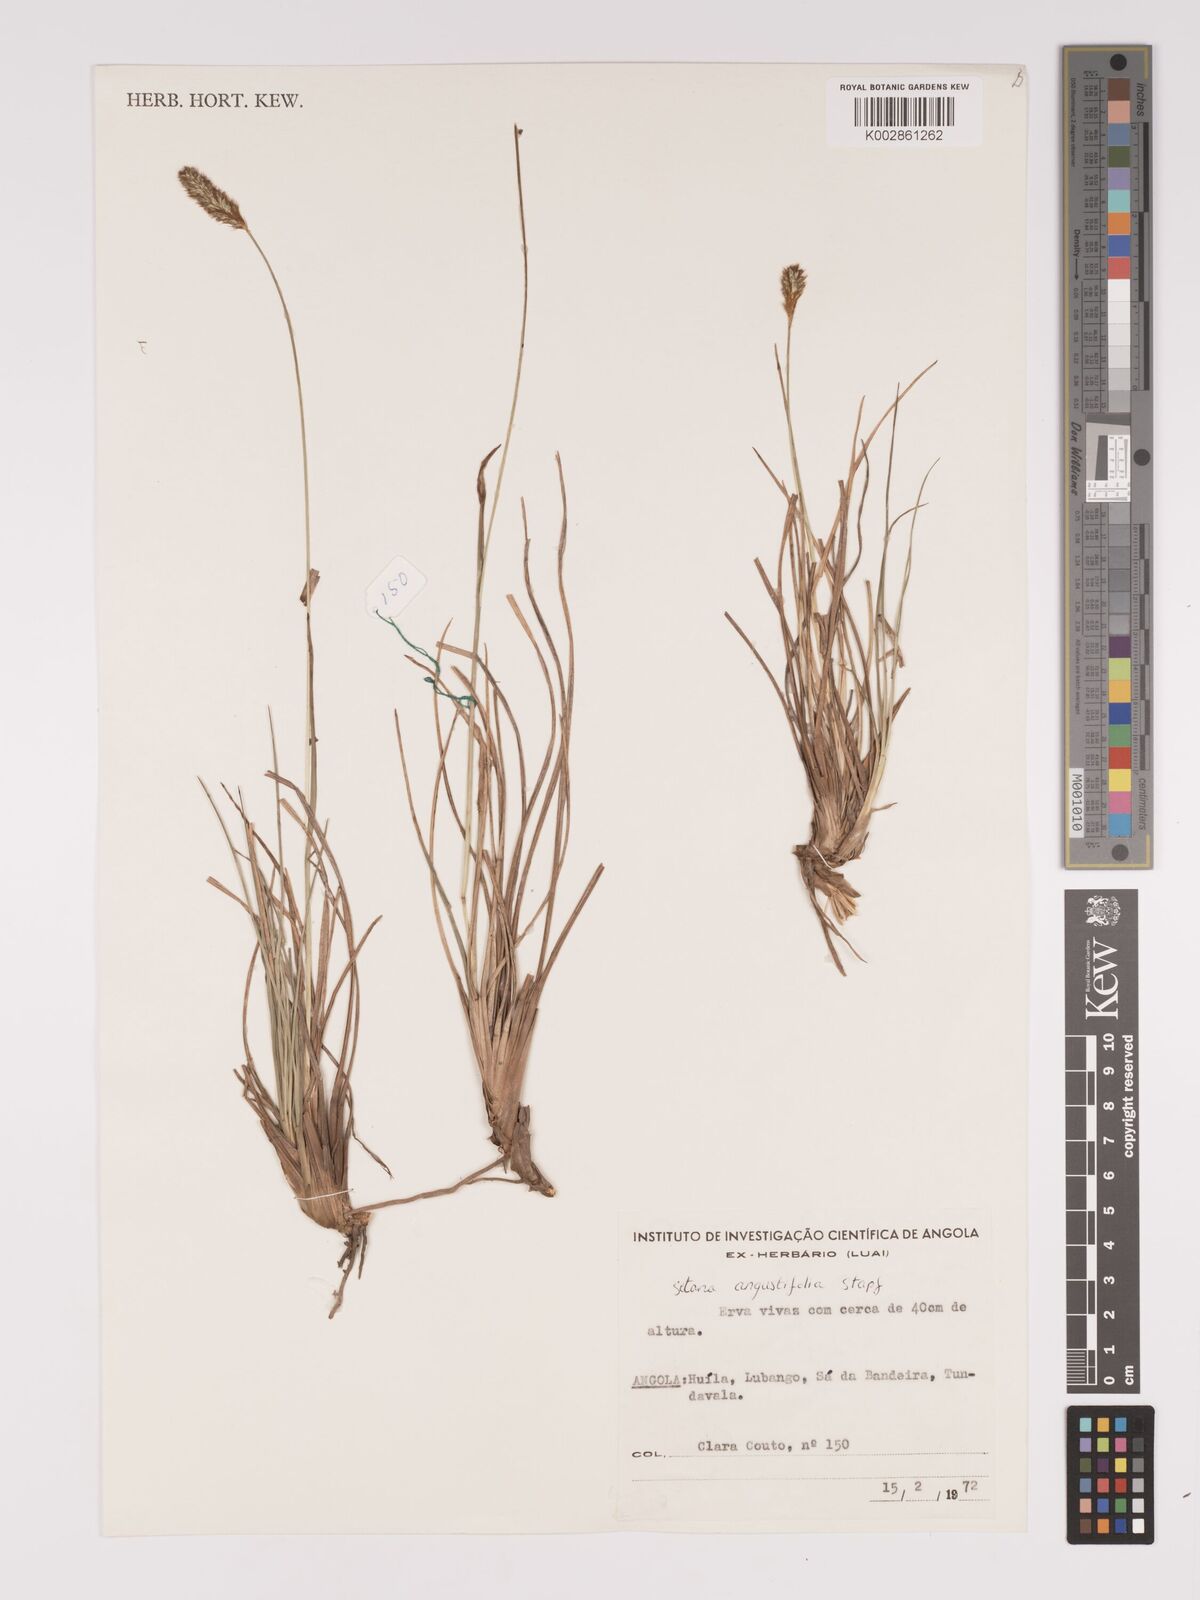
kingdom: Plantae
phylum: Tracheophyta
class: Liliopsida
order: Poales
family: Poaceae
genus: Setaria
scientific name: Setaria sphacelata
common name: African bristlegrass
